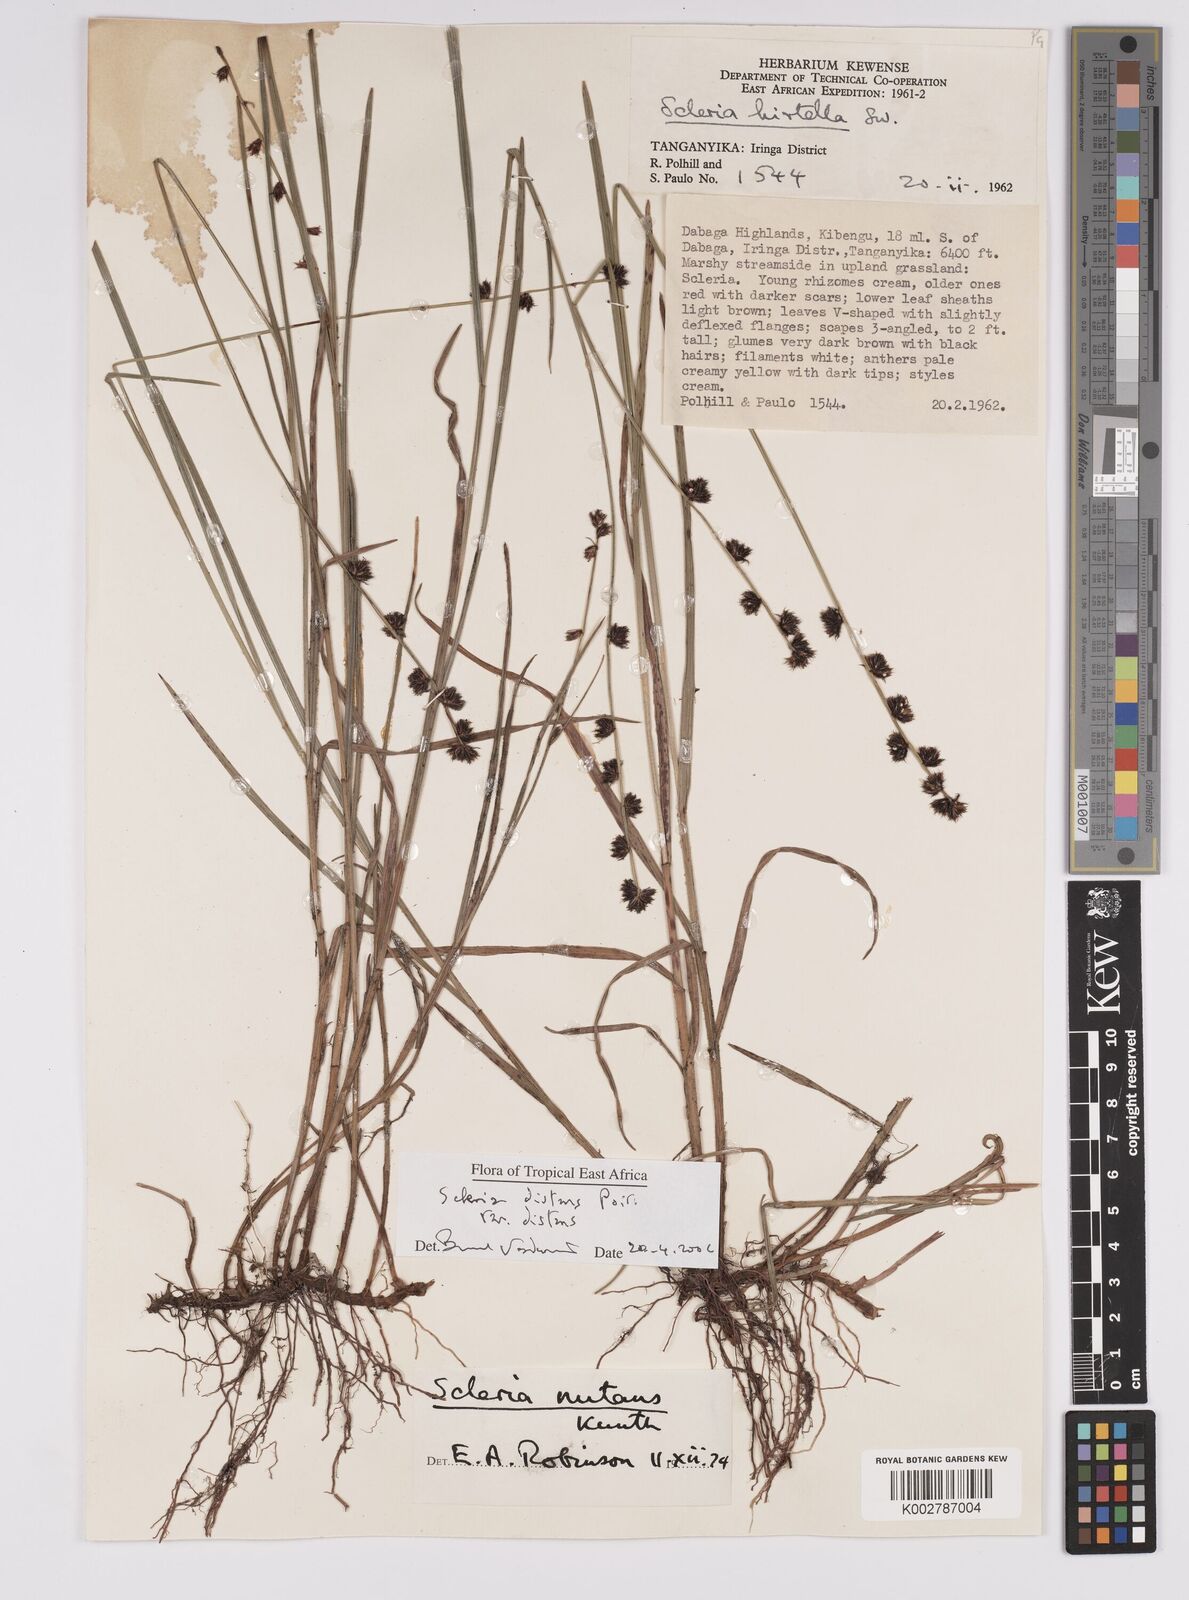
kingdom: Plantae
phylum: Tracheophyta
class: Liliopsida
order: Poales
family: Cyperaceae
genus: Scleria
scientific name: Scleria distans
